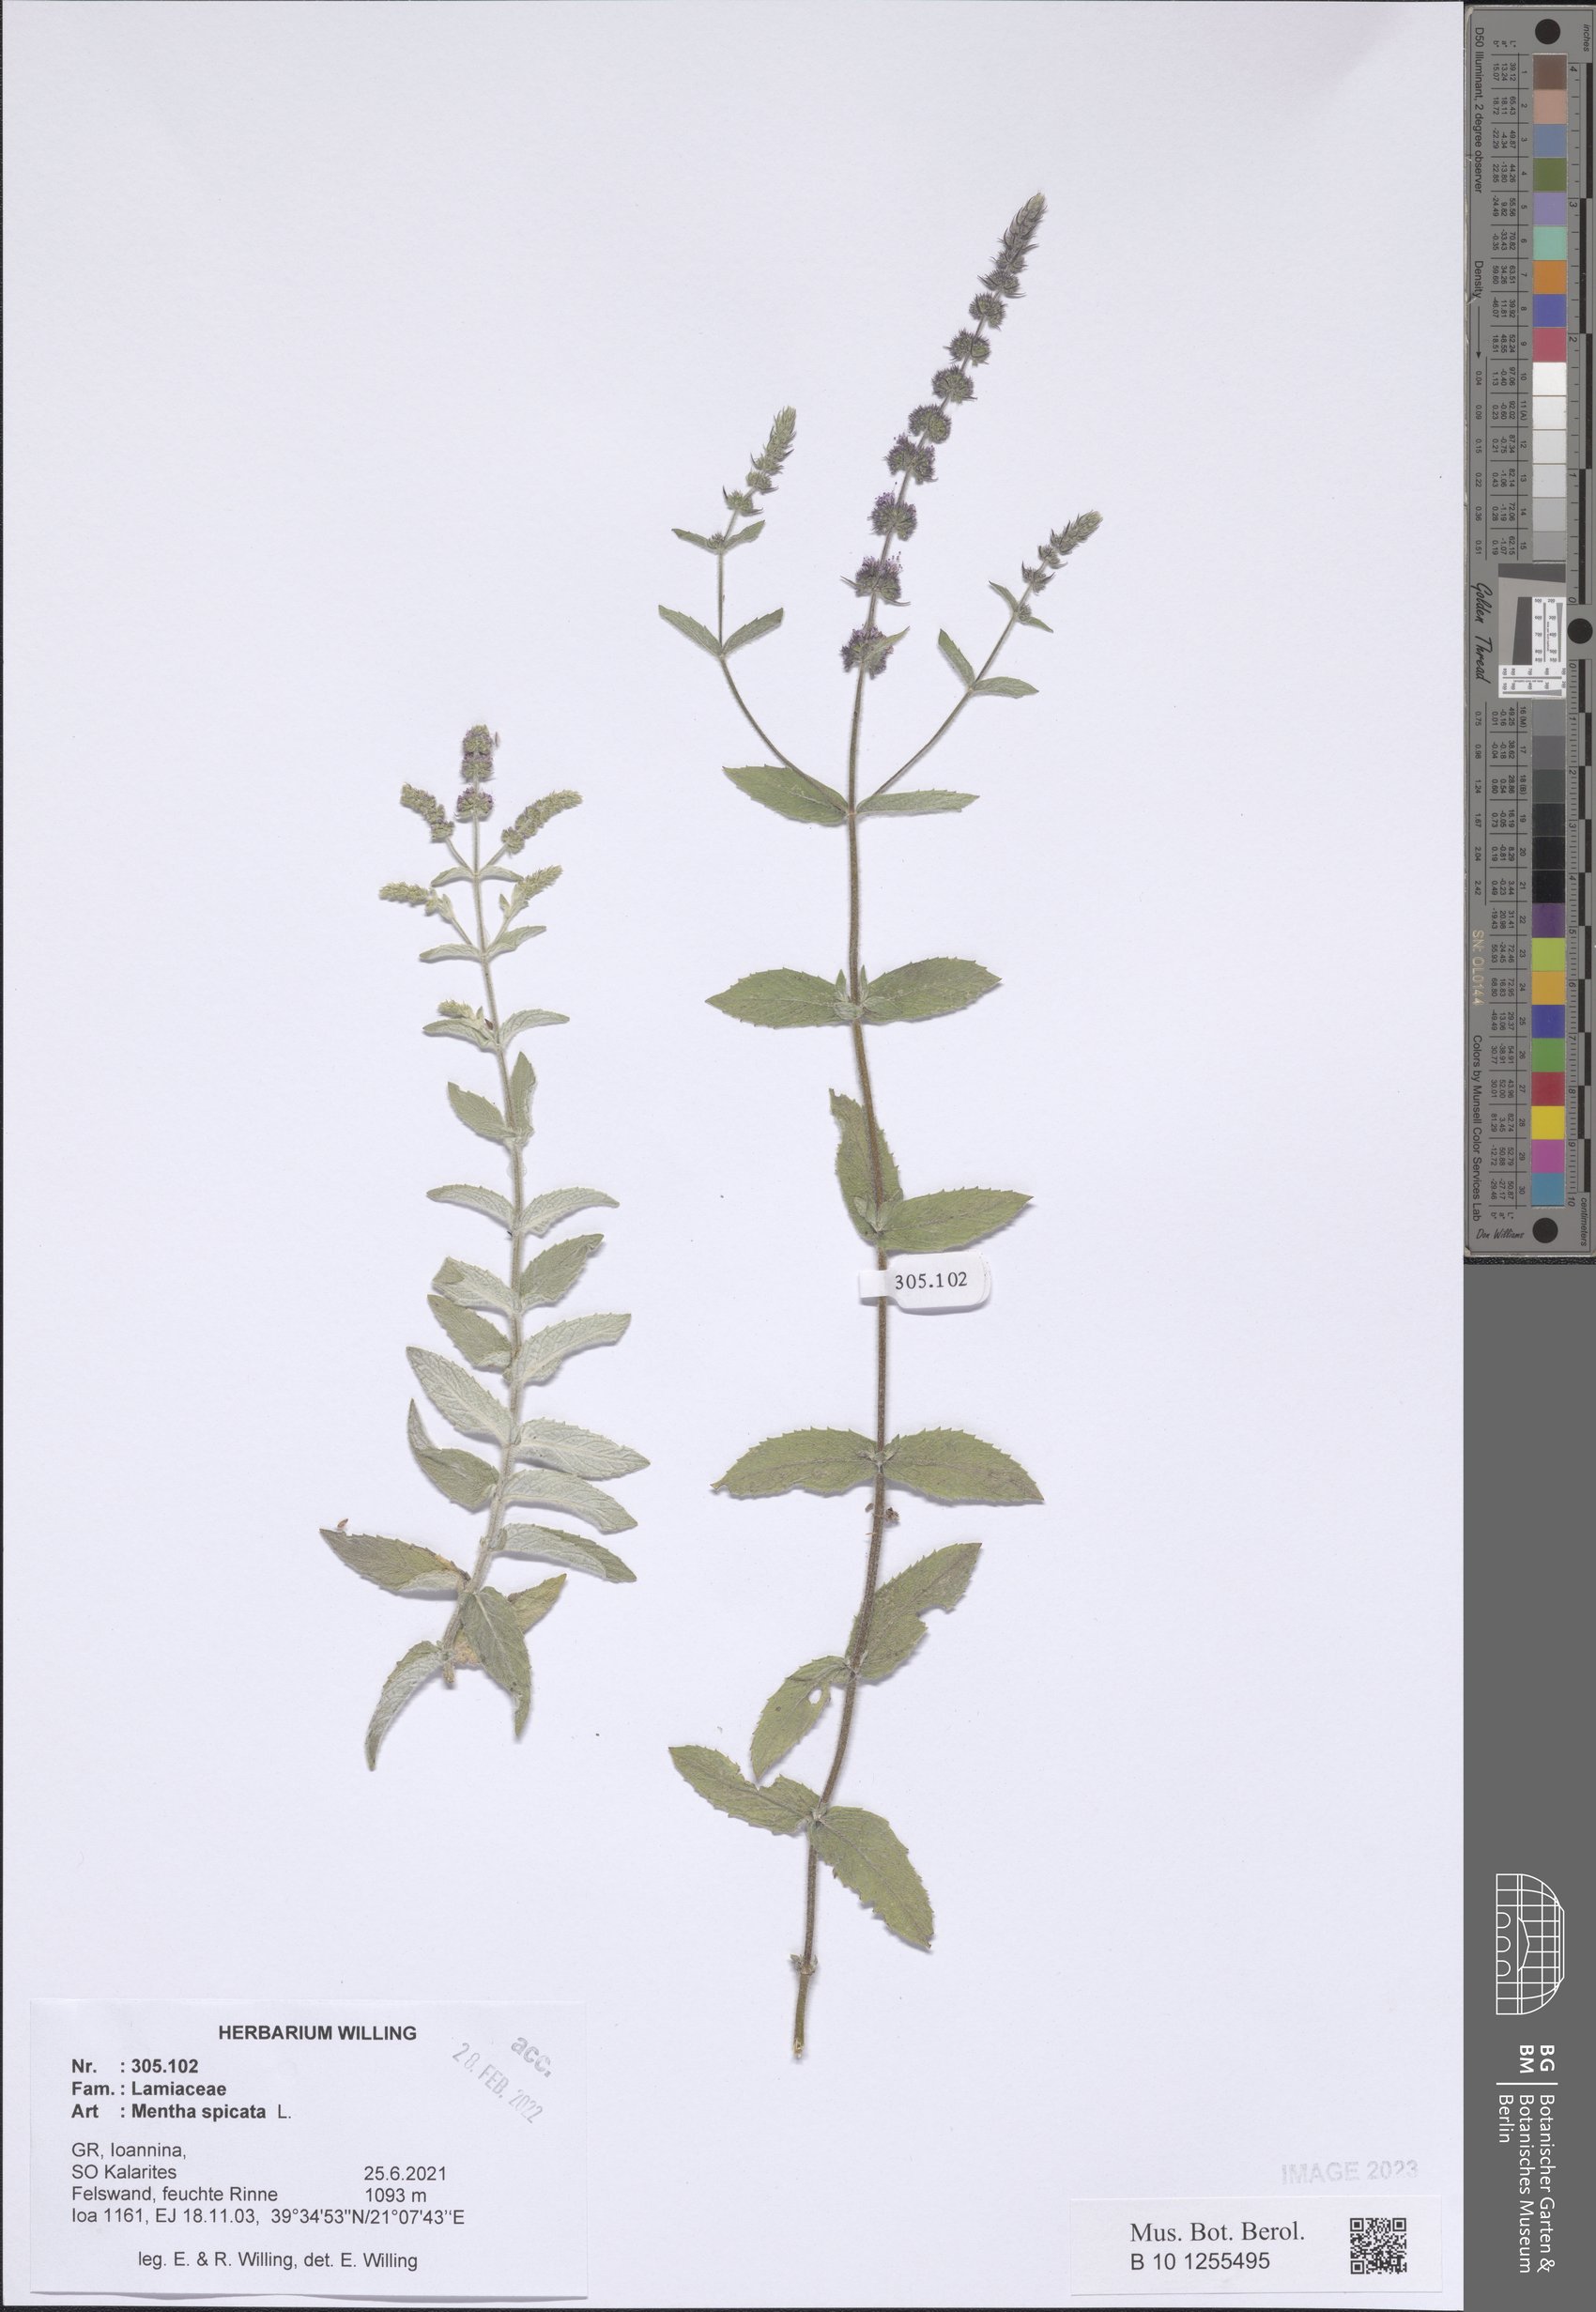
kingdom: Plantae
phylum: Tracheophyta
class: Magnoliopsida
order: Lamiales
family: Lamiaceae
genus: Mentha
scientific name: Mentha spicata
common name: Spearmint
